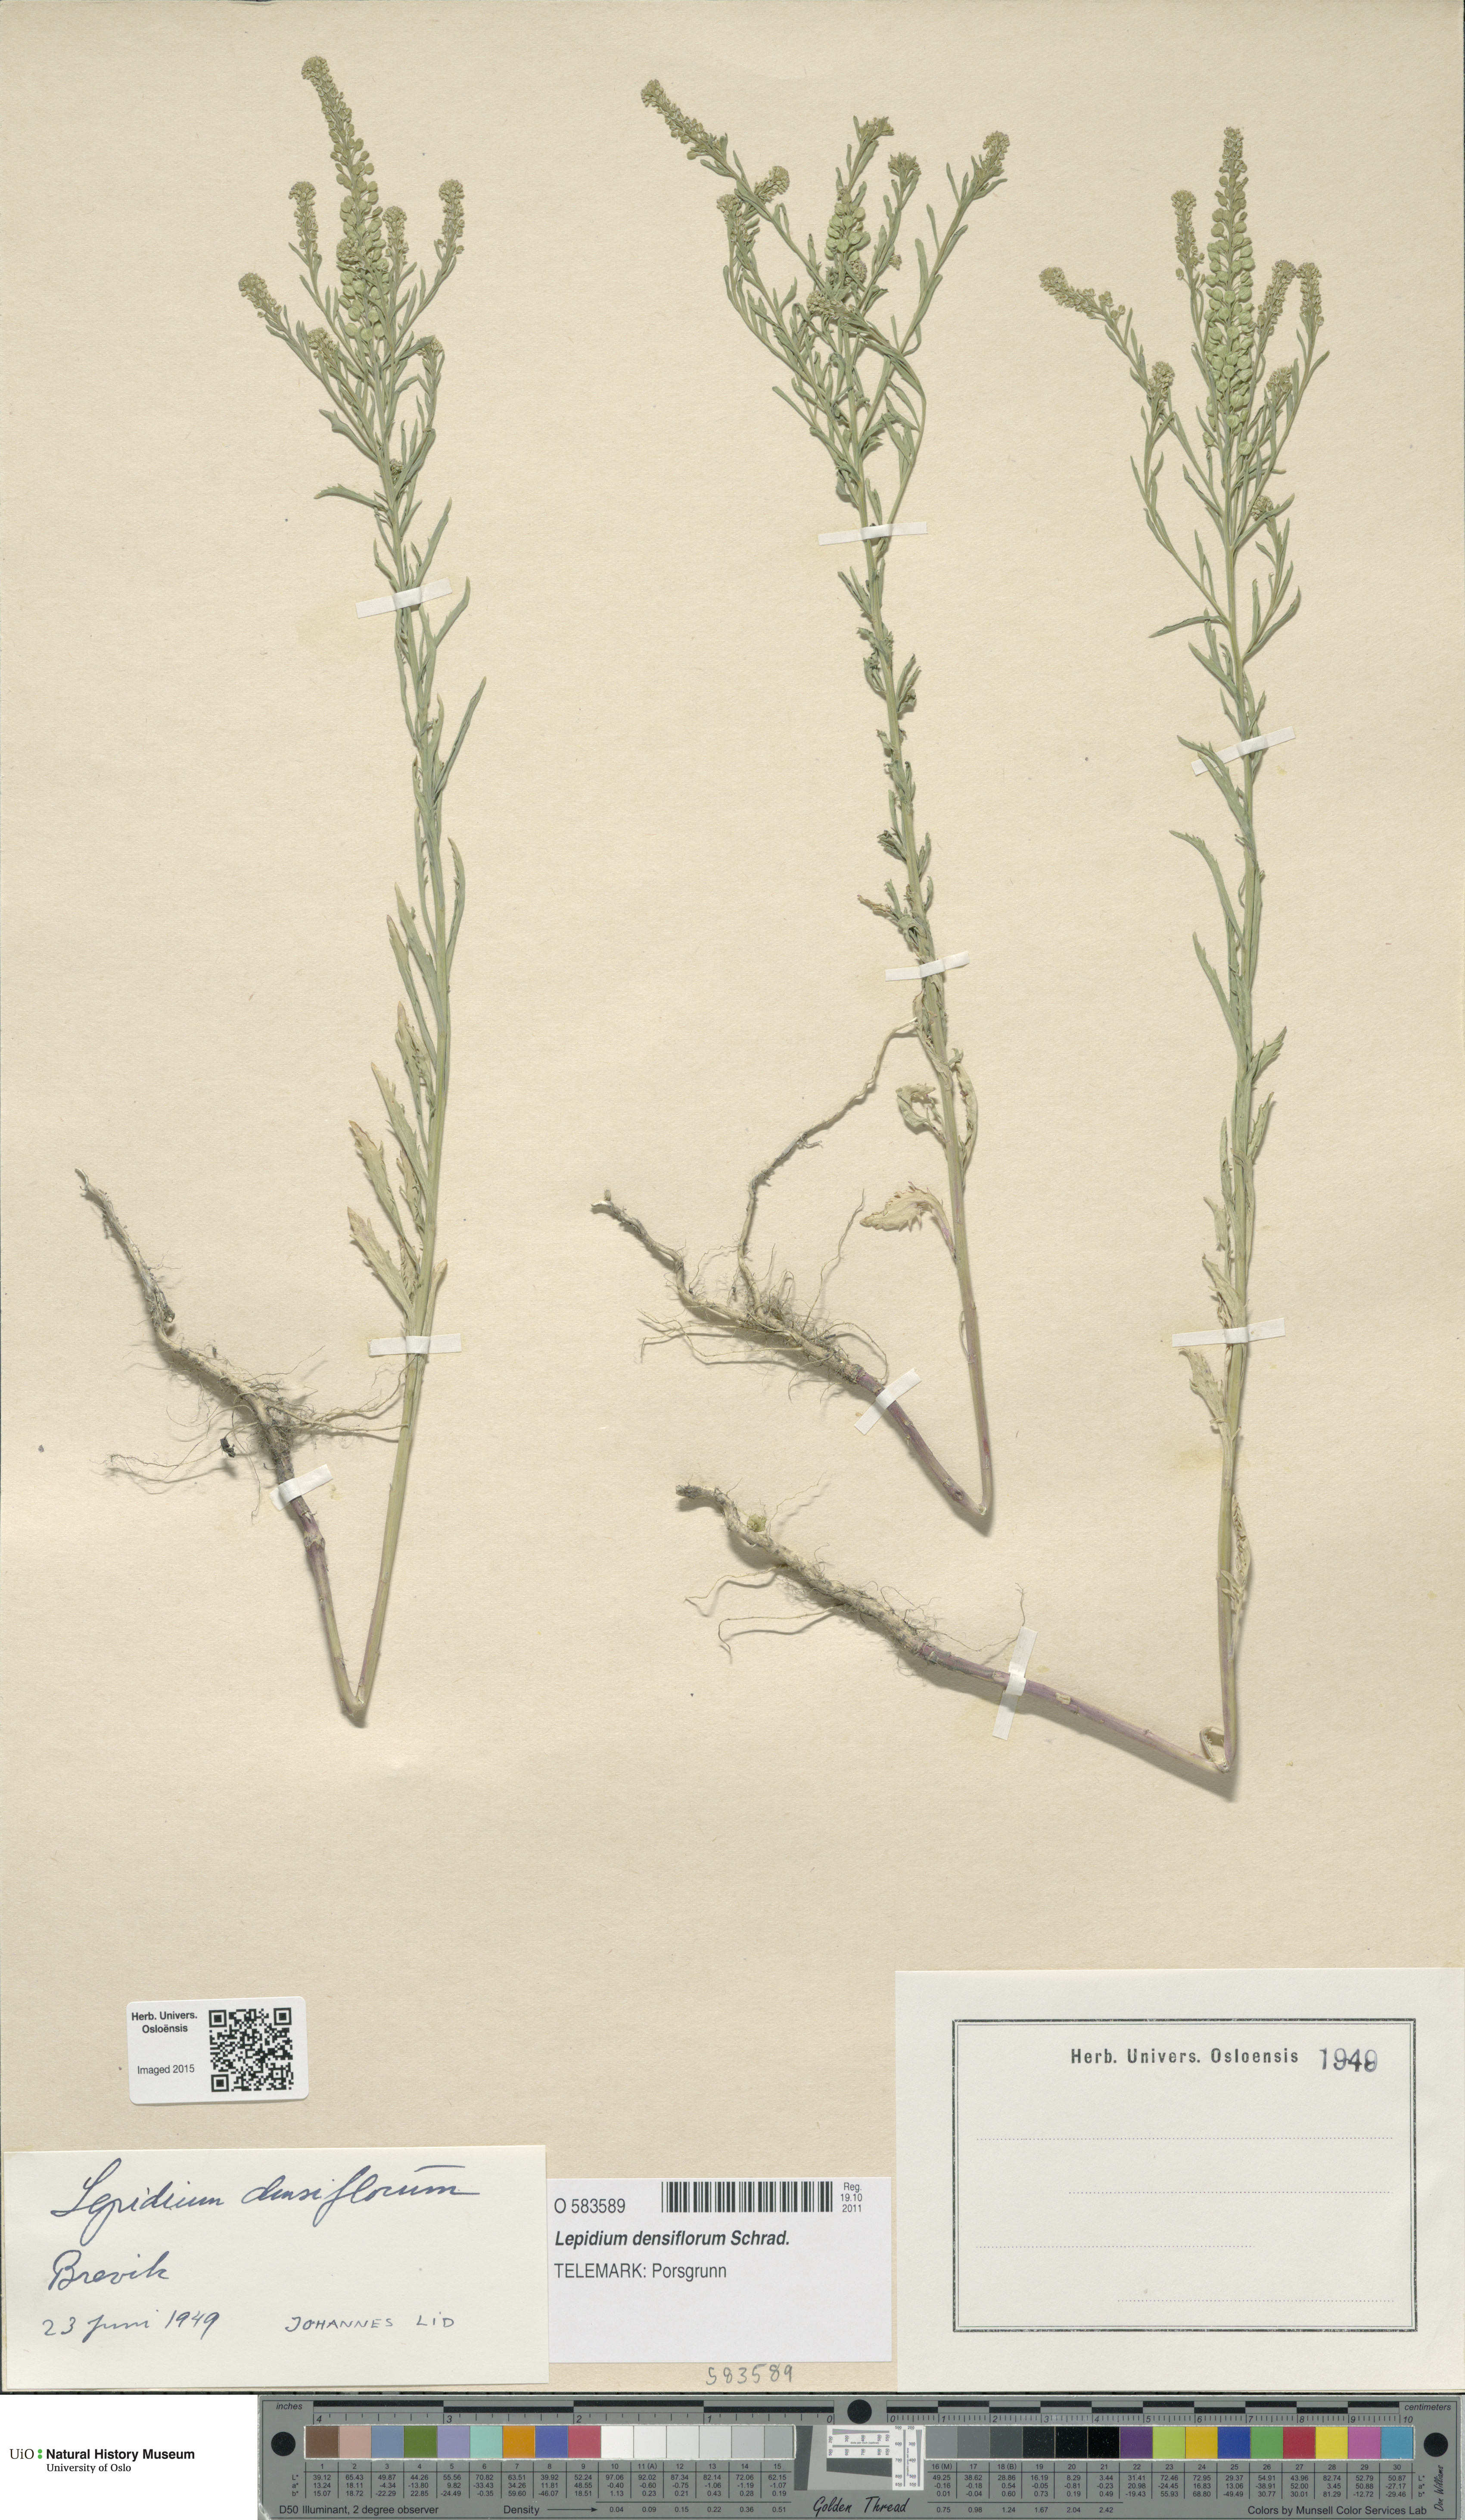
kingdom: Plantae
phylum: Tracheophyta
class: Magnoliopsida
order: Brassicales
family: Brassicaceae
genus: Lepidium
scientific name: Lepidium densiflorum
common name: Miner's pepperwort
